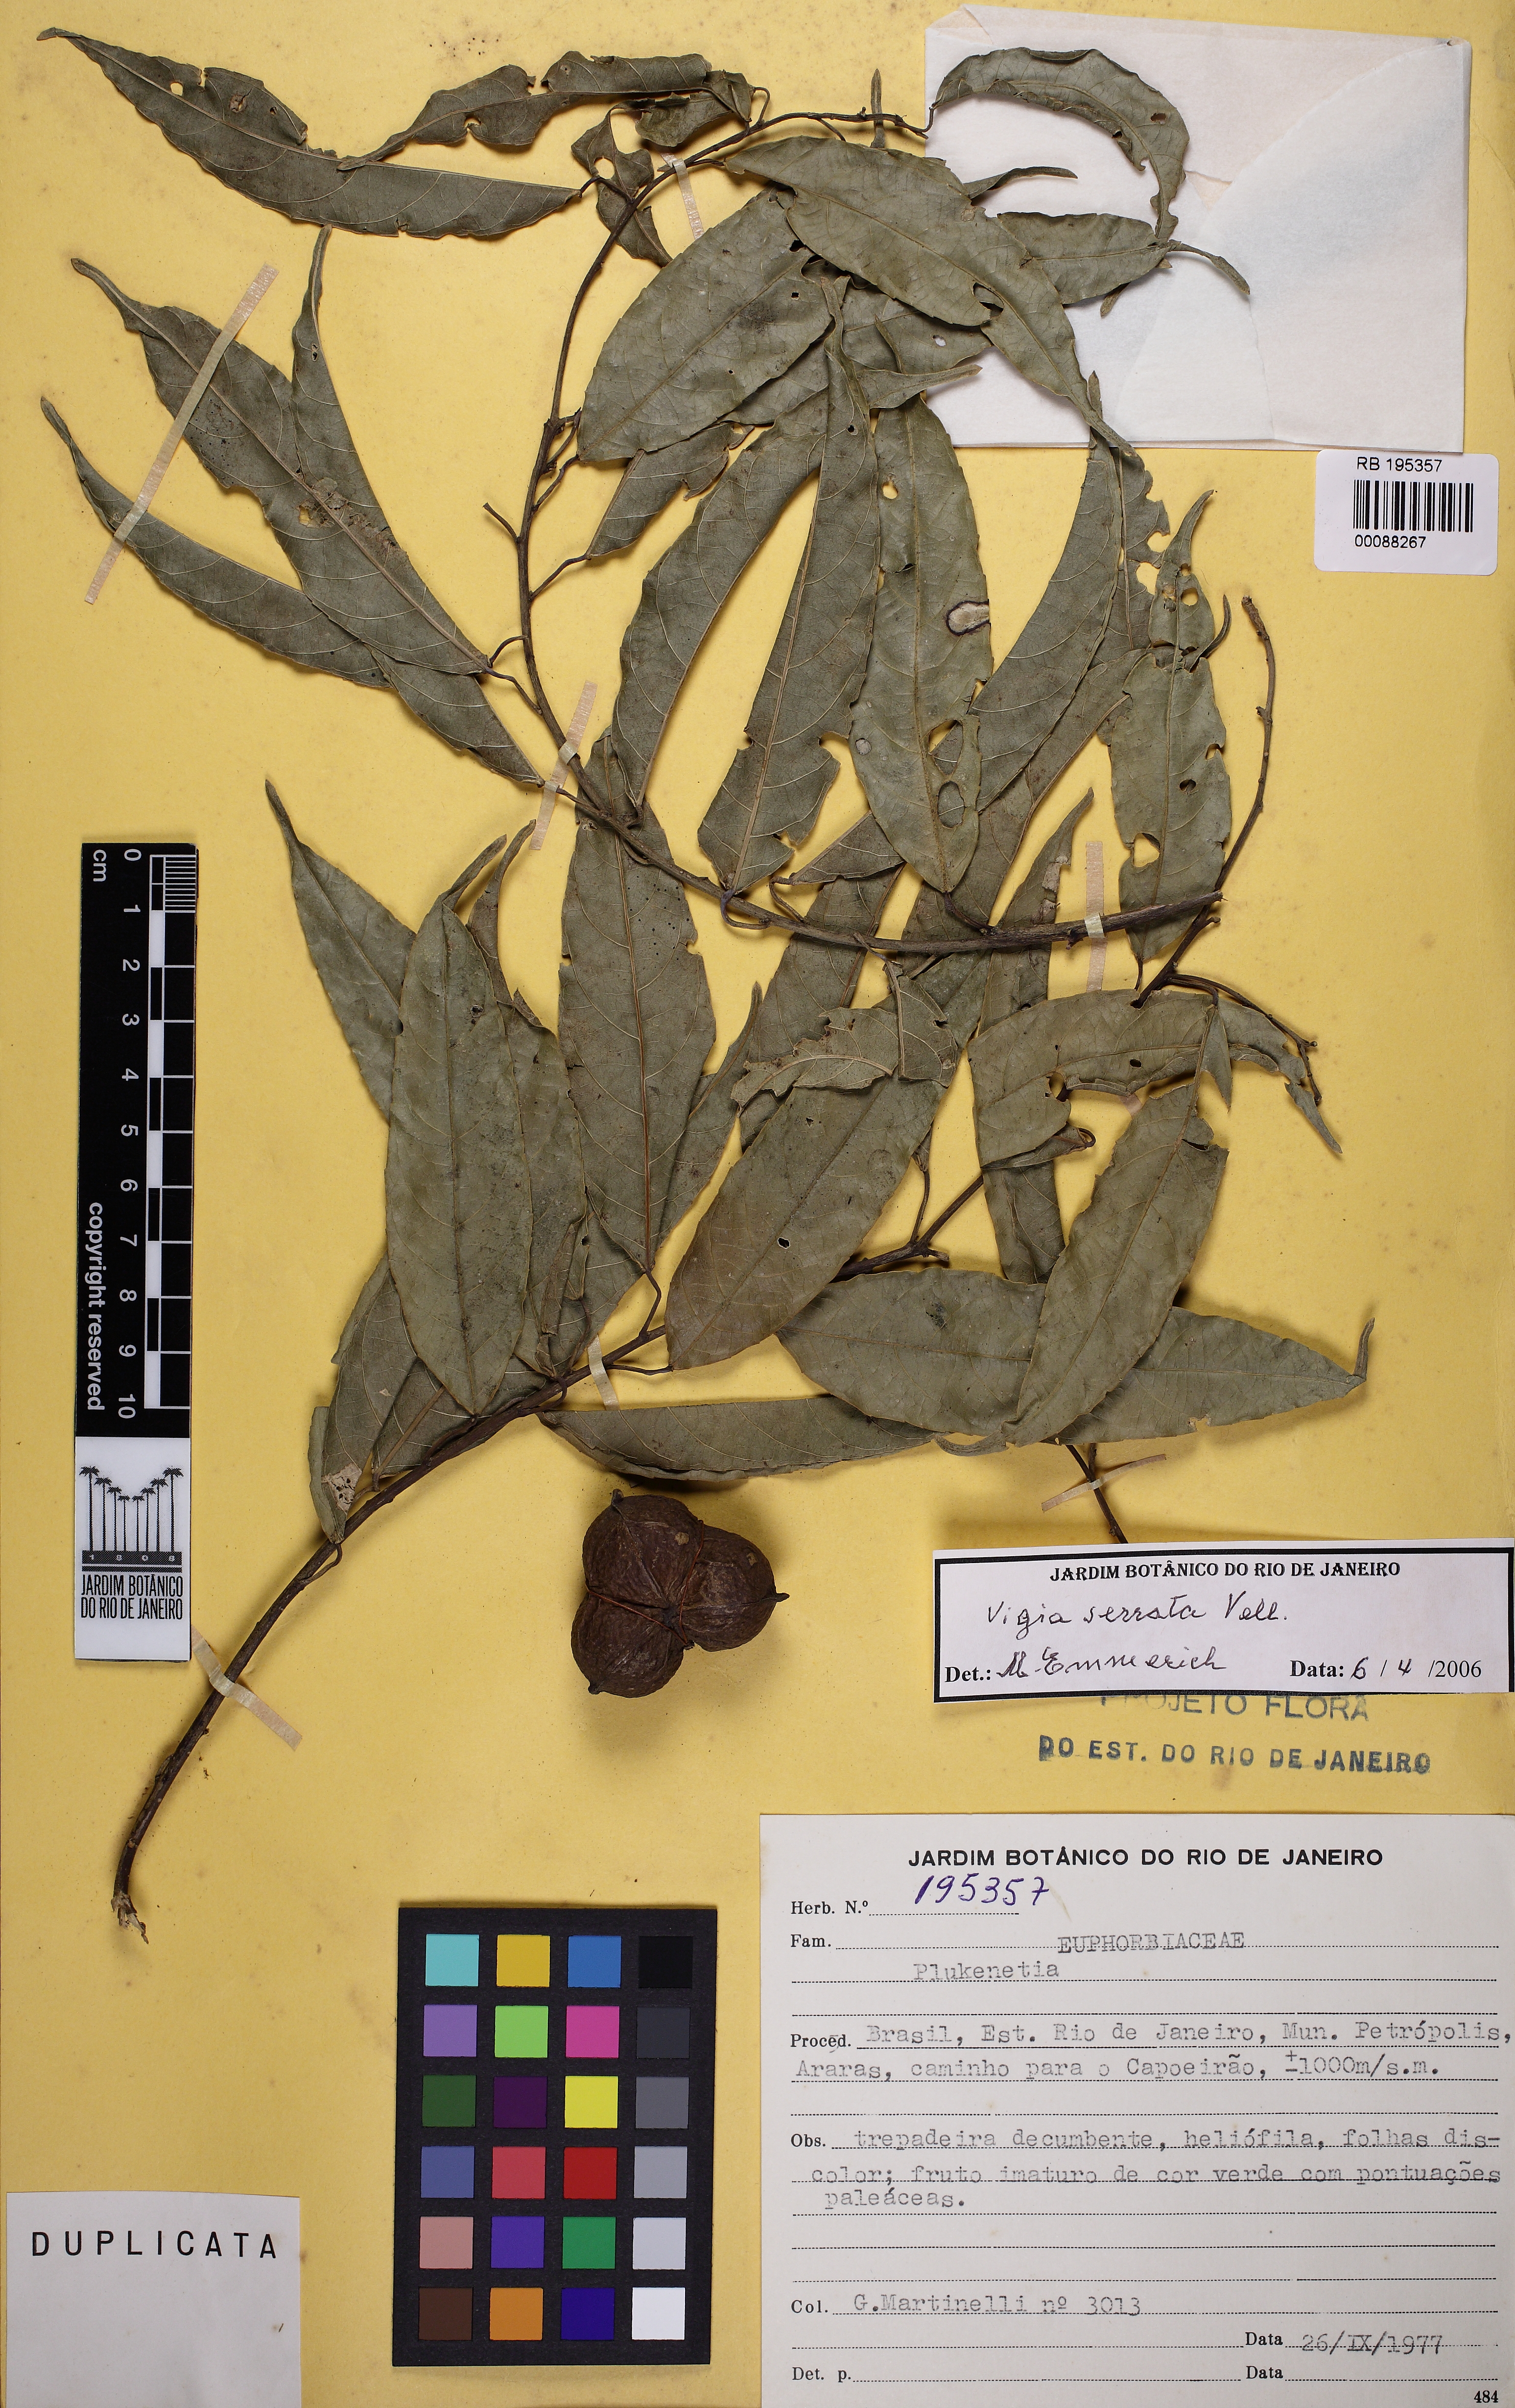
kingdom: Plantae
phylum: Tracheophyta
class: Magnoliopsida
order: Malpighiales
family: Euphorbiaceae
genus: Plukenetia
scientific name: Plukenetia
